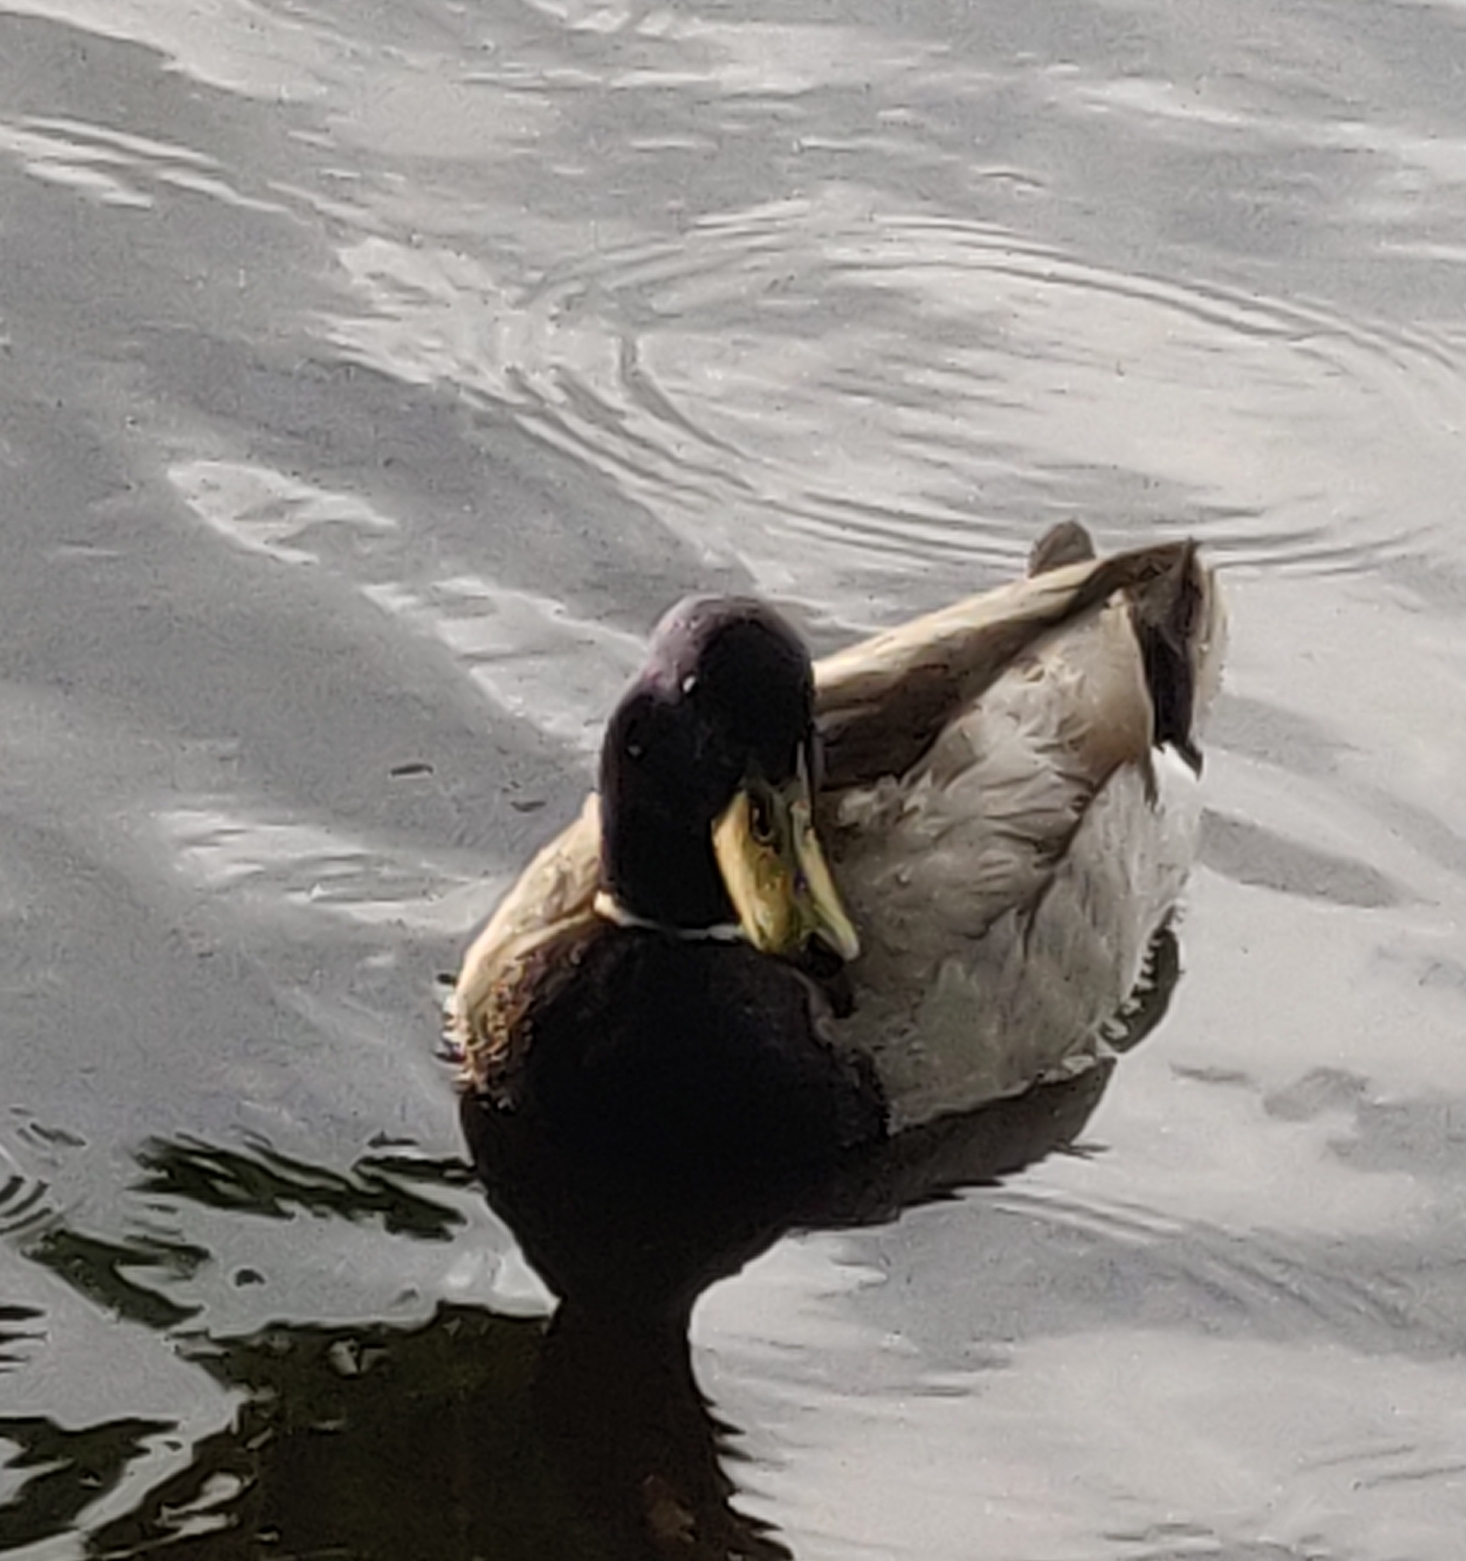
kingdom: Animalia
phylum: Chordata
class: Aves
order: Anseriformes
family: Anatidae
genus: Anas
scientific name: Anas platyrhynchos
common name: Gråand
